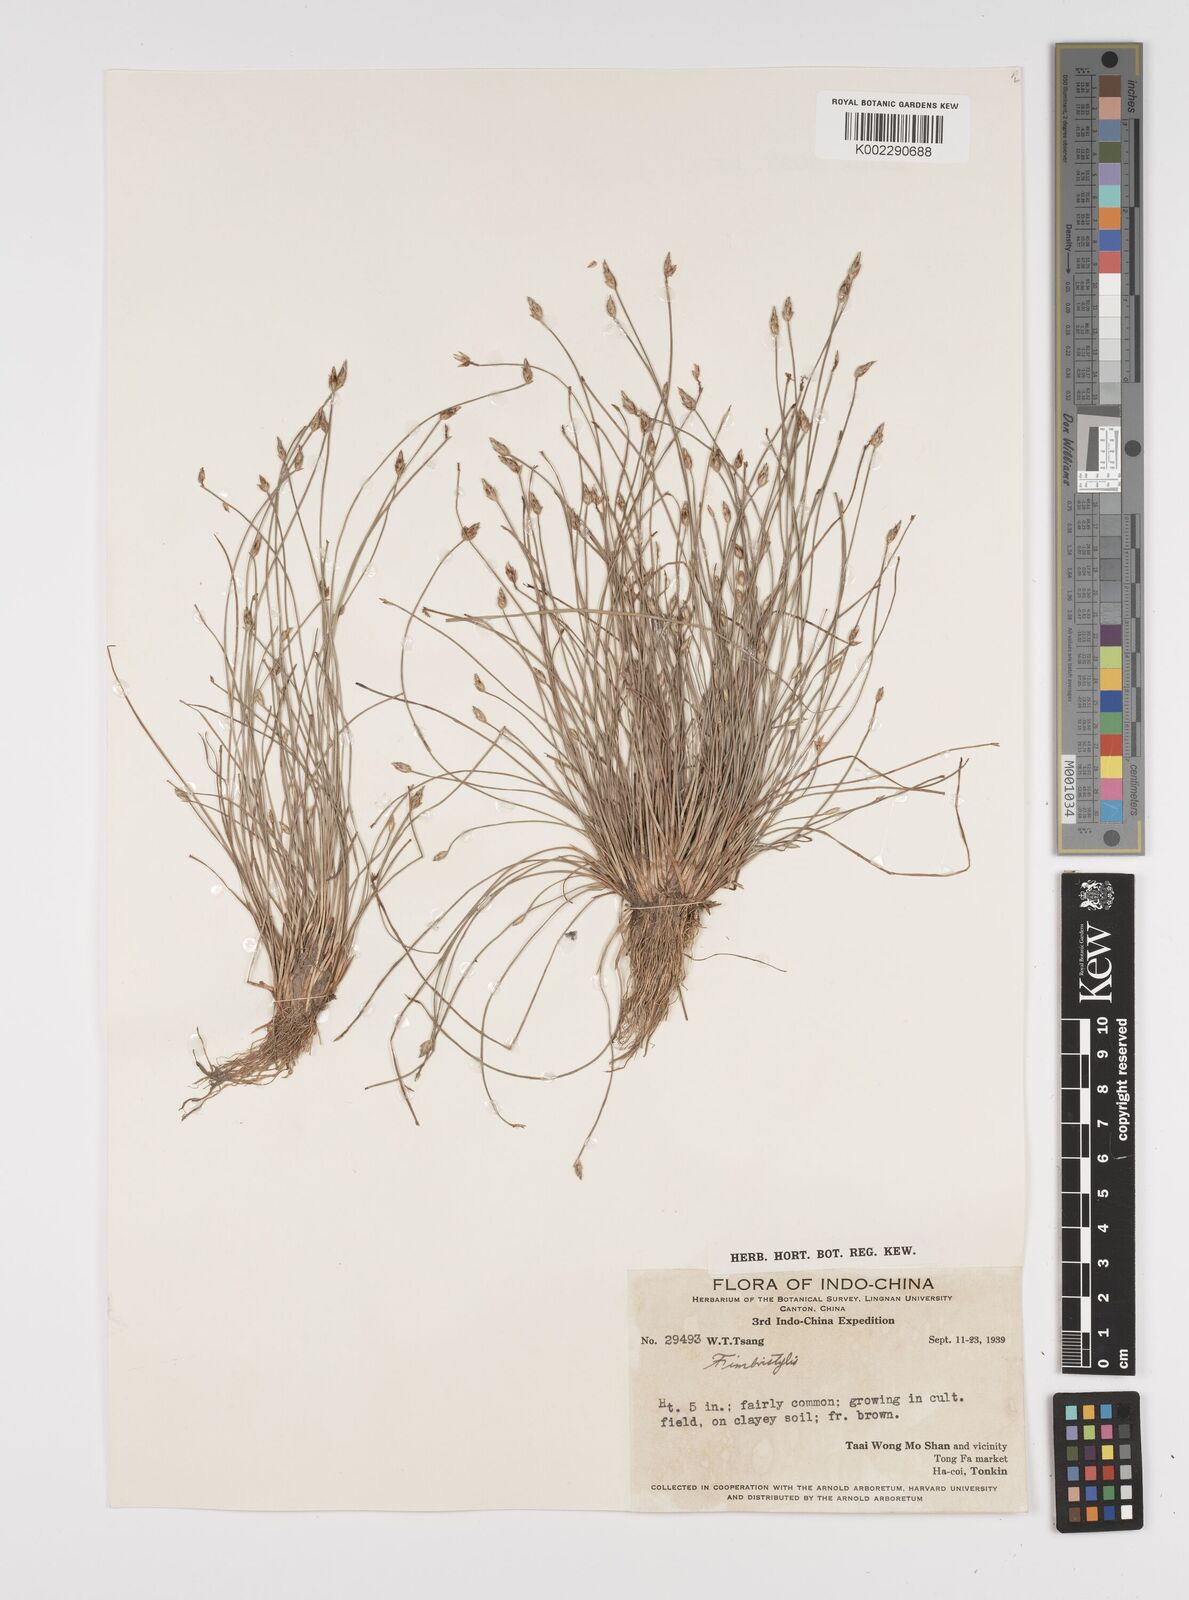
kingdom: Plantae
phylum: Tracheophyta
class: Liliopsida
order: Poales
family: Cyperaceae
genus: Fimbristylis
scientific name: Fimbristylis
